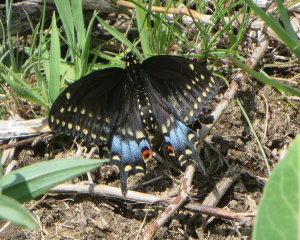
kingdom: Animalia
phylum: Arthropoda
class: Insecta
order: Lepidoptera
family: Papilionidae
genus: Papilio
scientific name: Papilio polyxenes
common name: Black Swallowtail
